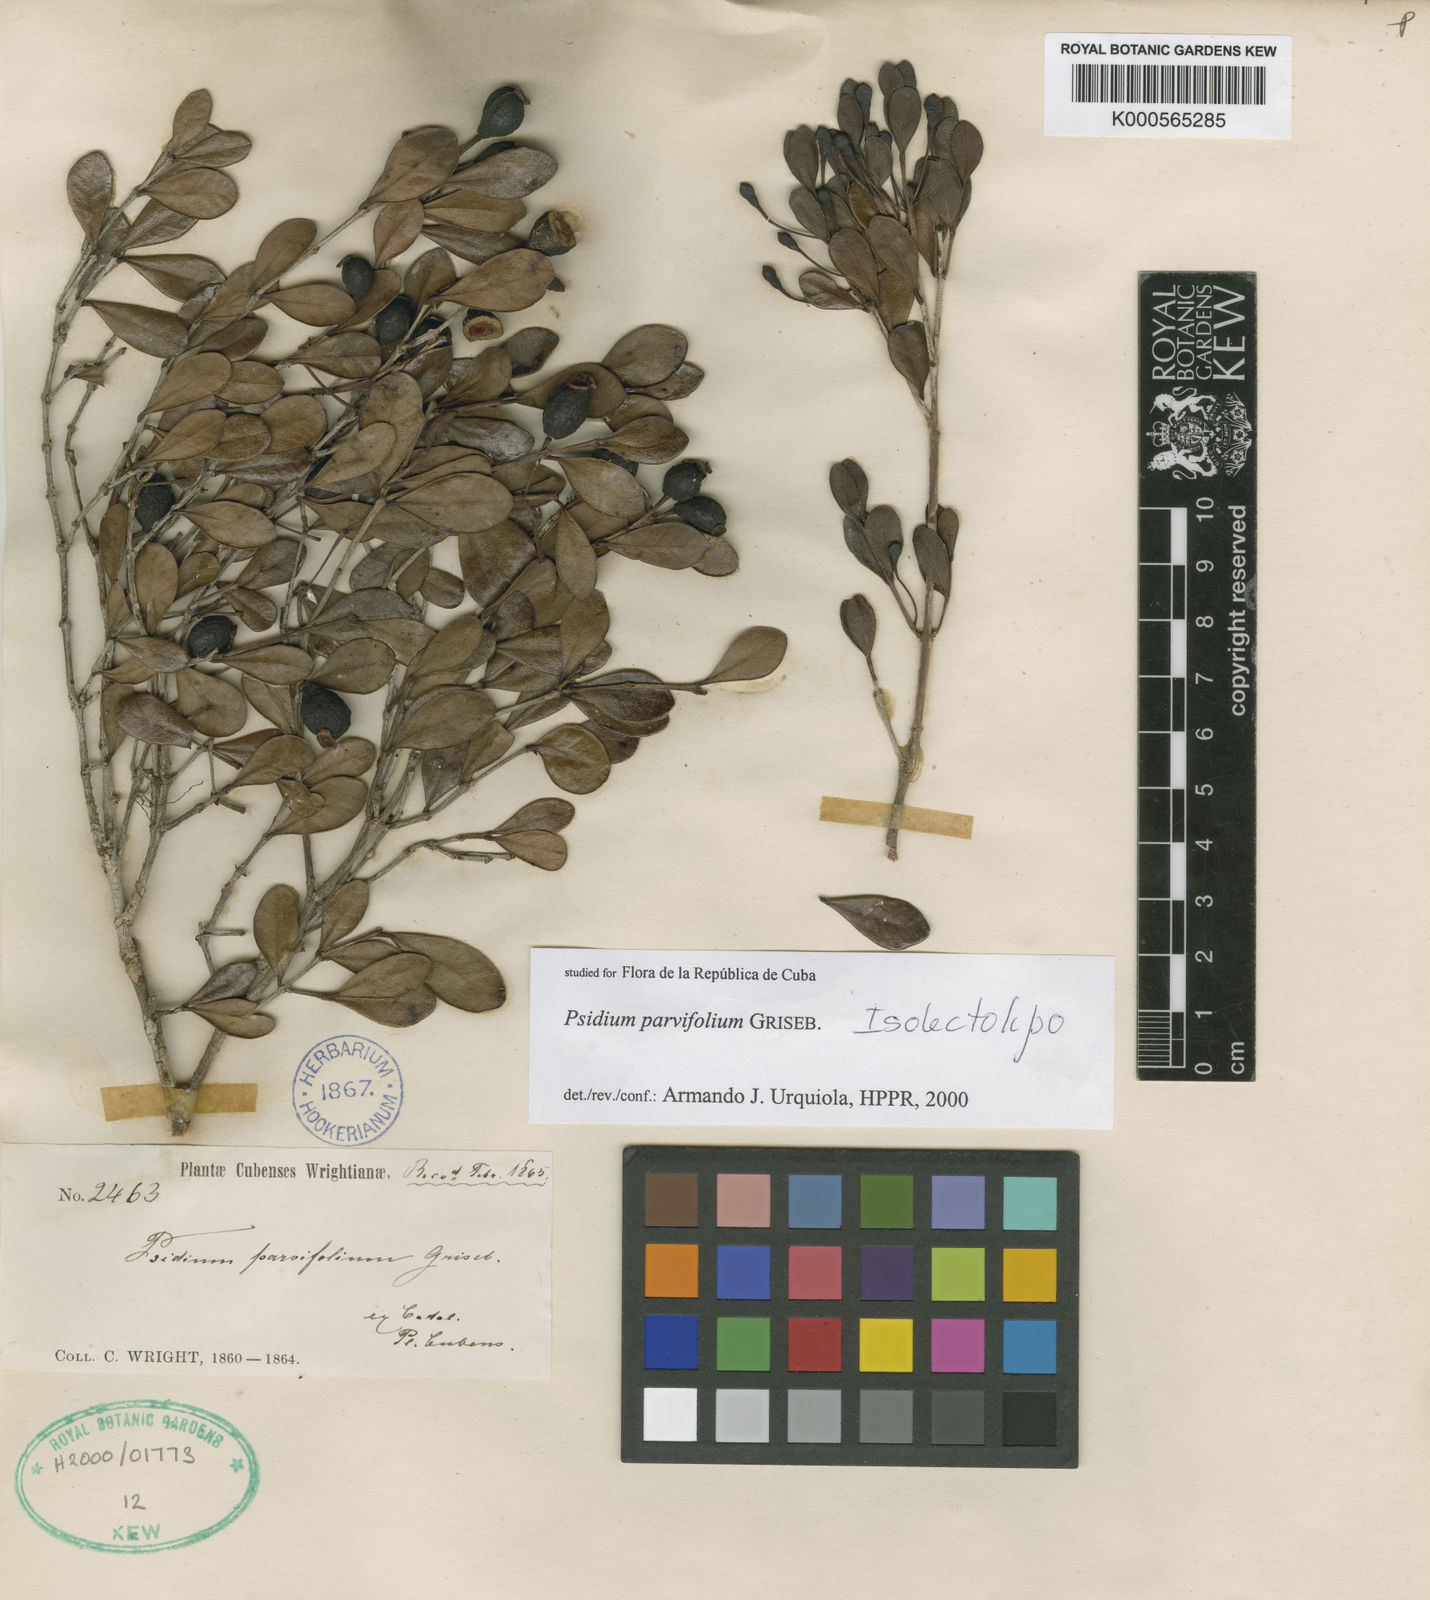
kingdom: Plantae
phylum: Tracheophyta
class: Magnoliopsida
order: Myrtales
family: Myrtaceae
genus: Psidium
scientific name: Psidium parvifolium
